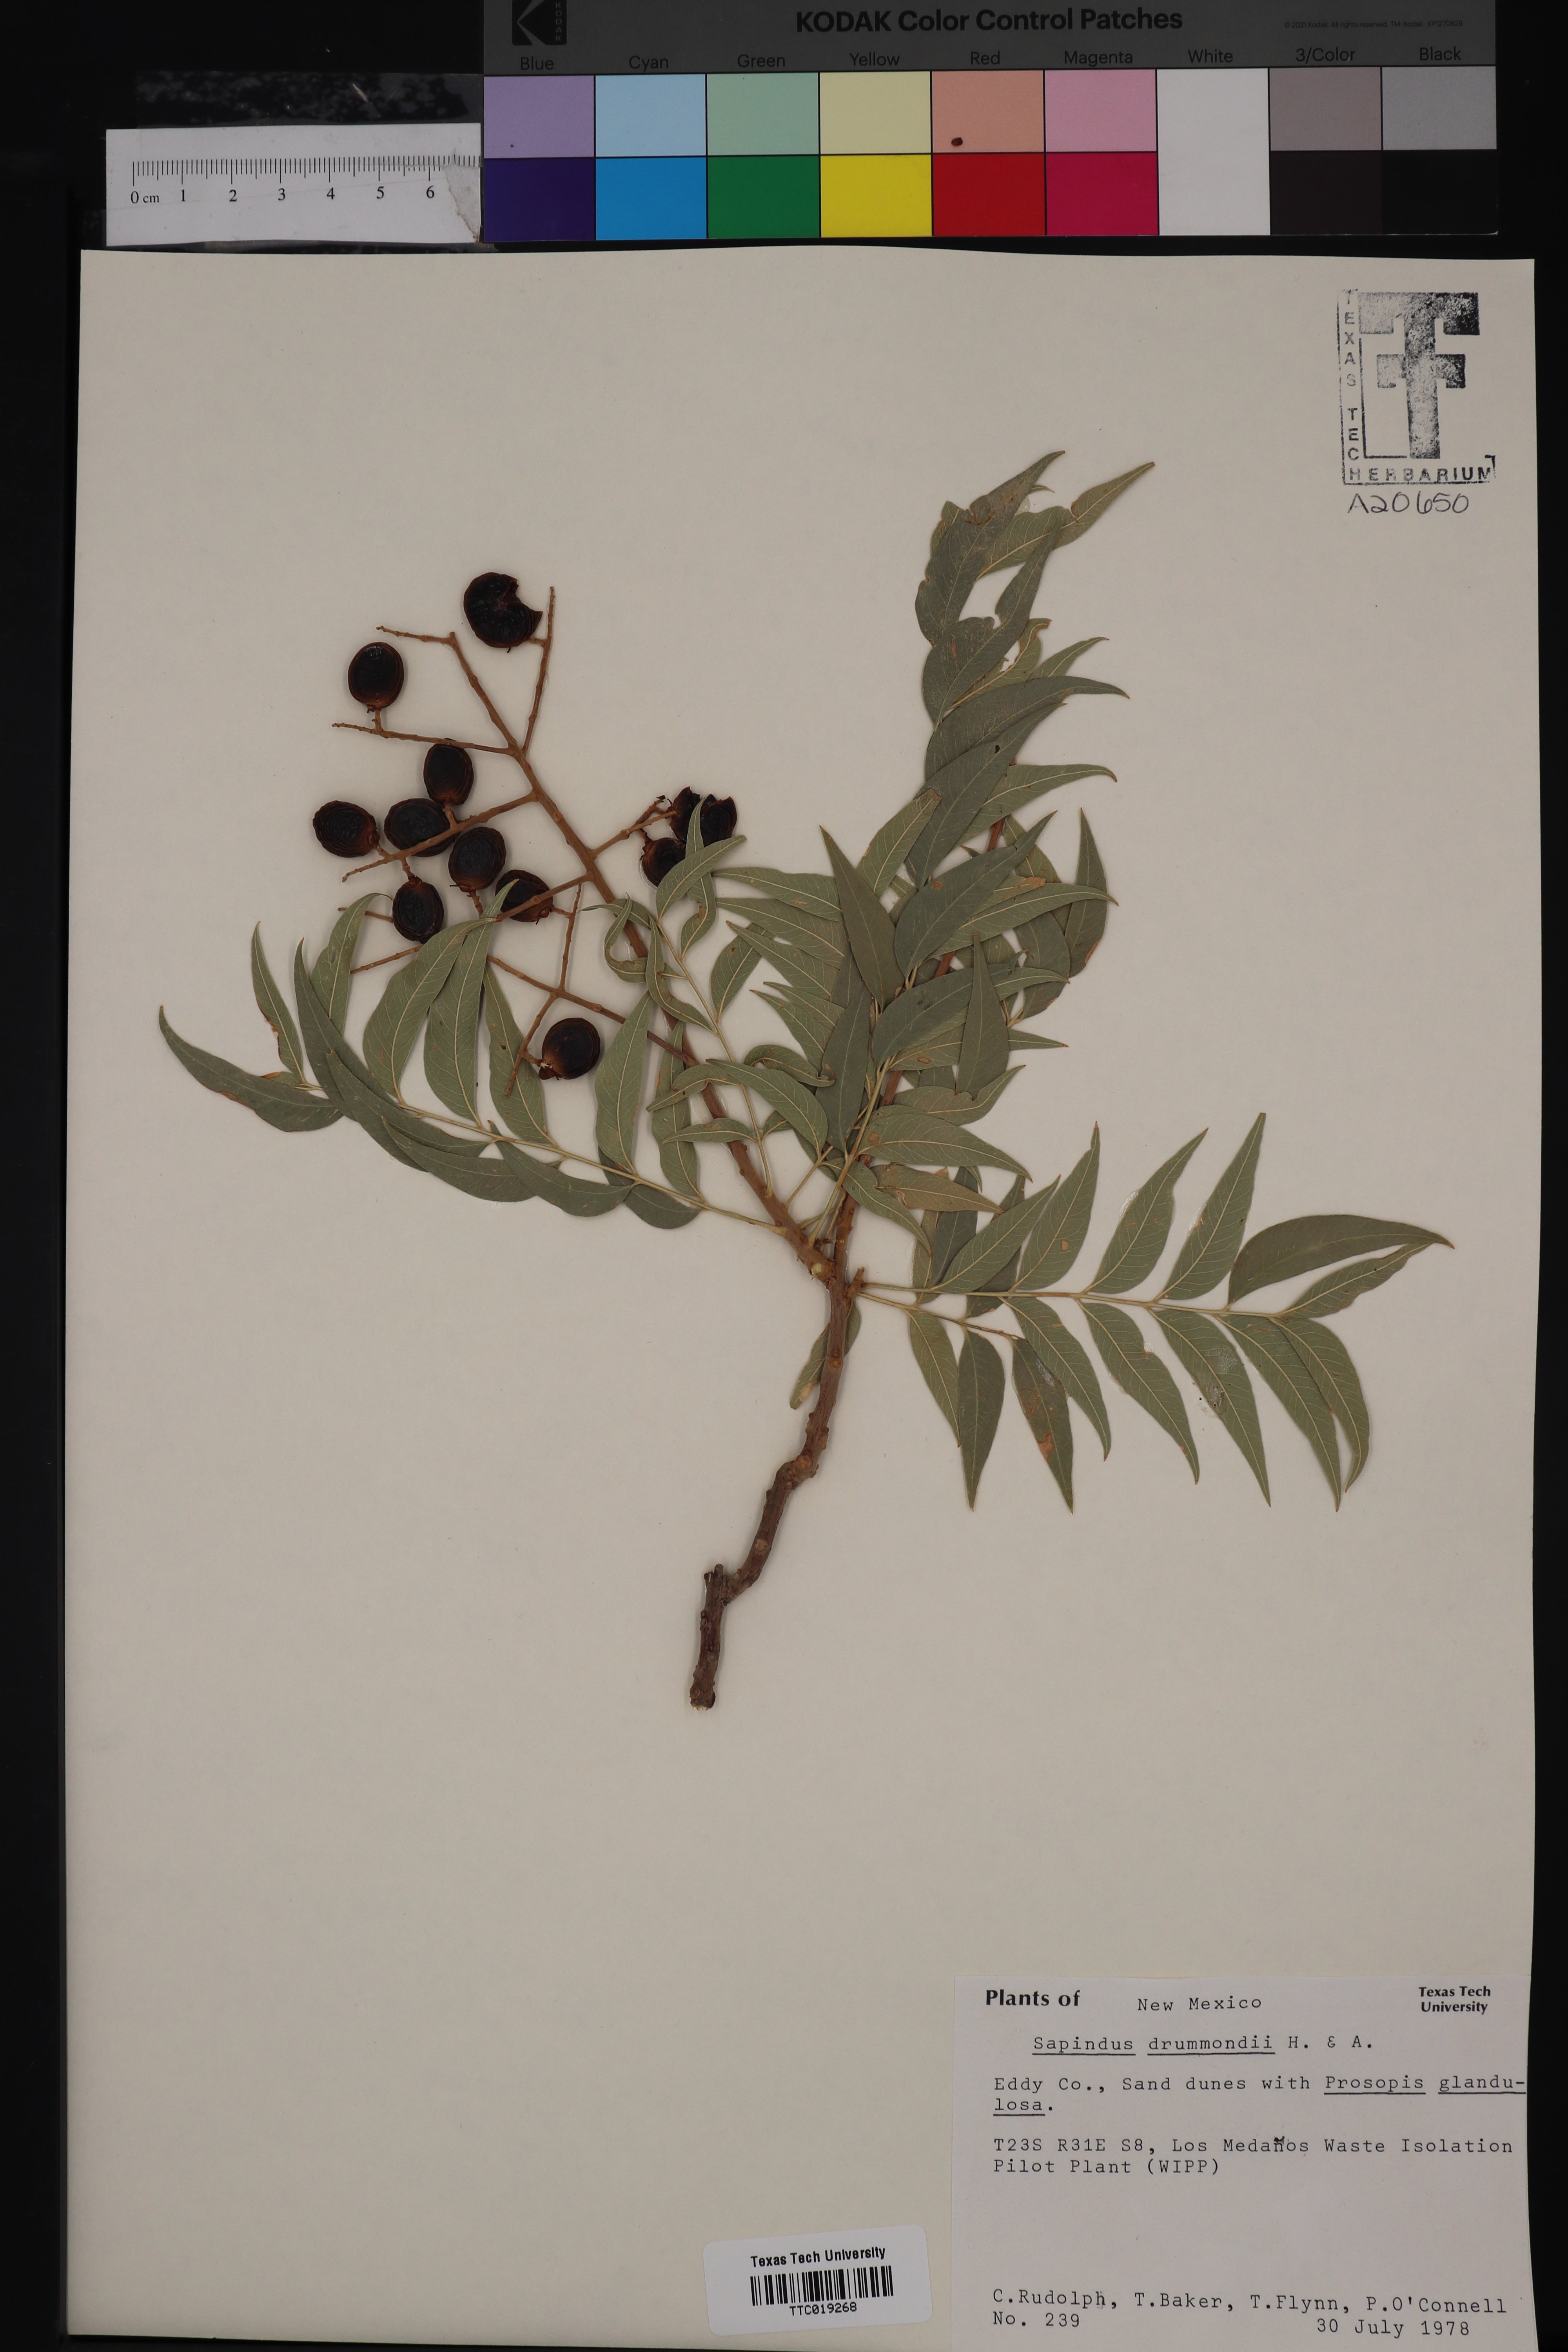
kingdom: Plantae
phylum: Tracheophyta
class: Magnoliopsida
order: Sapindales
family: Sapindaceae
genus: Sapindus
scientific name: Sapindus drummondii
